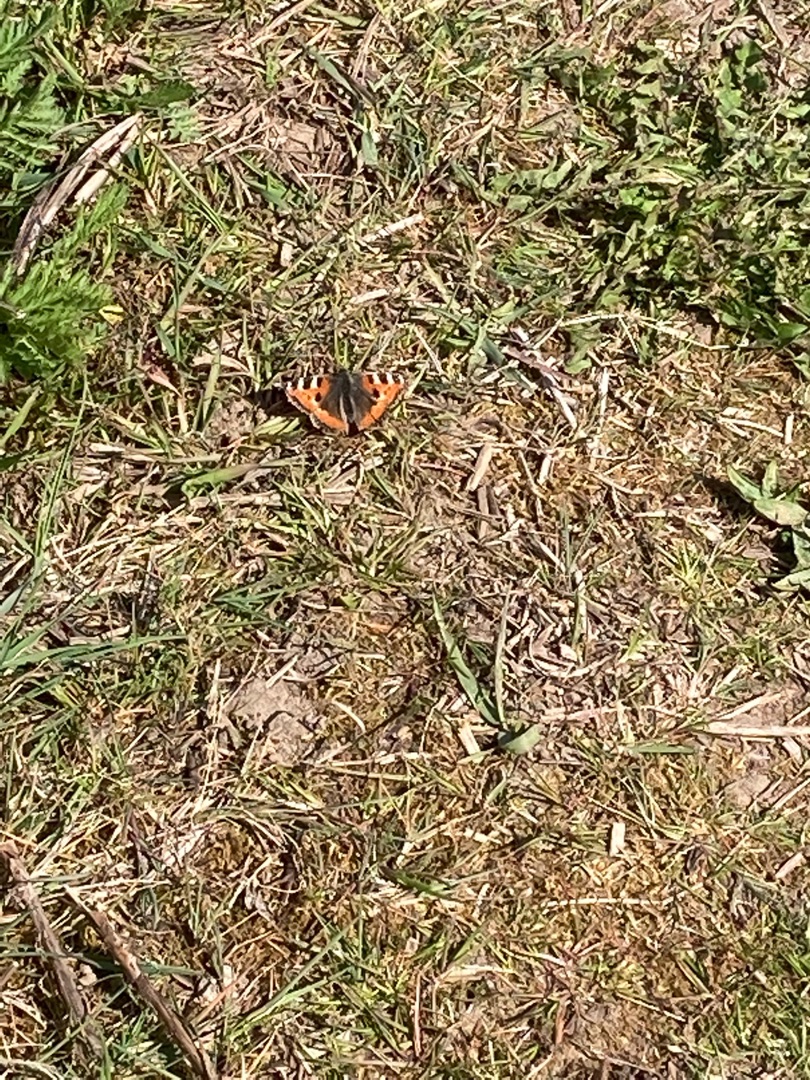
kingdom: Animalia
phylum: Arthropoda
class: Insecta
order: Lepidoptera
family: Nymphalidae
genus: Aglais
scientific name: Aglais urticae
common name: Nældens takvinge
